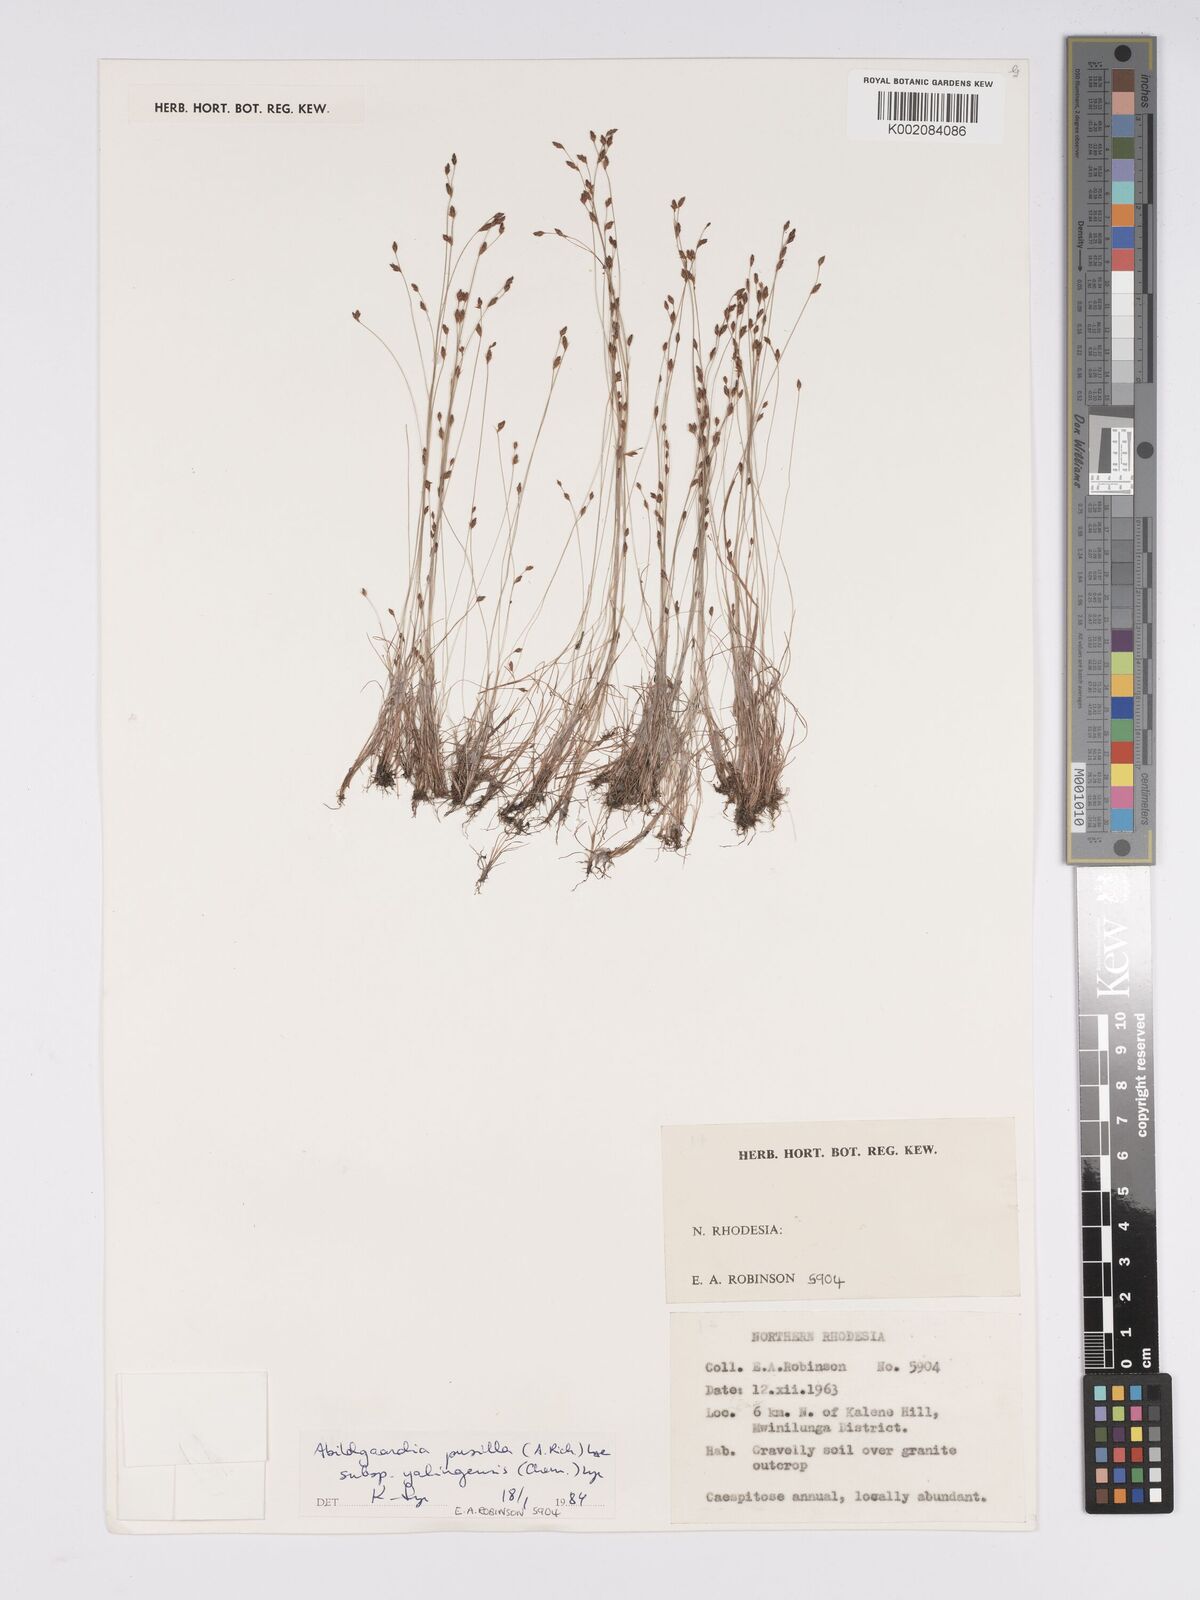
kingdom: Plantae
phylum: Tracheophyta
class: Liliopsida
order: Poales
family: Cyperaceae
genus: Bulbostylis
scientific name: Bulbostylis pusilla
